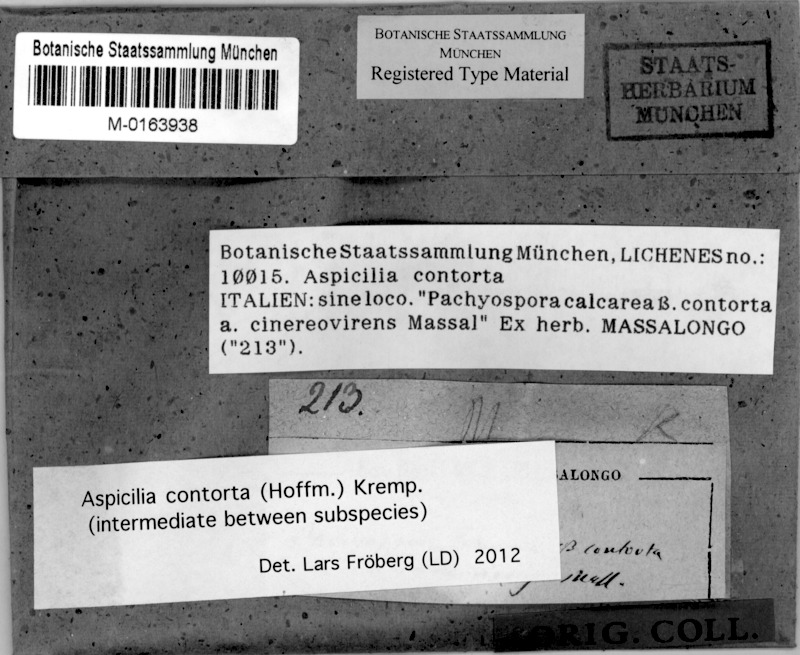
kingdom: Fungi
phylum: Ascomycota
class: Lecanoromycetes
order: Pertusariales
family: Megasporaceae
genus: Circinaria
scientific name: Circinaria contorta
